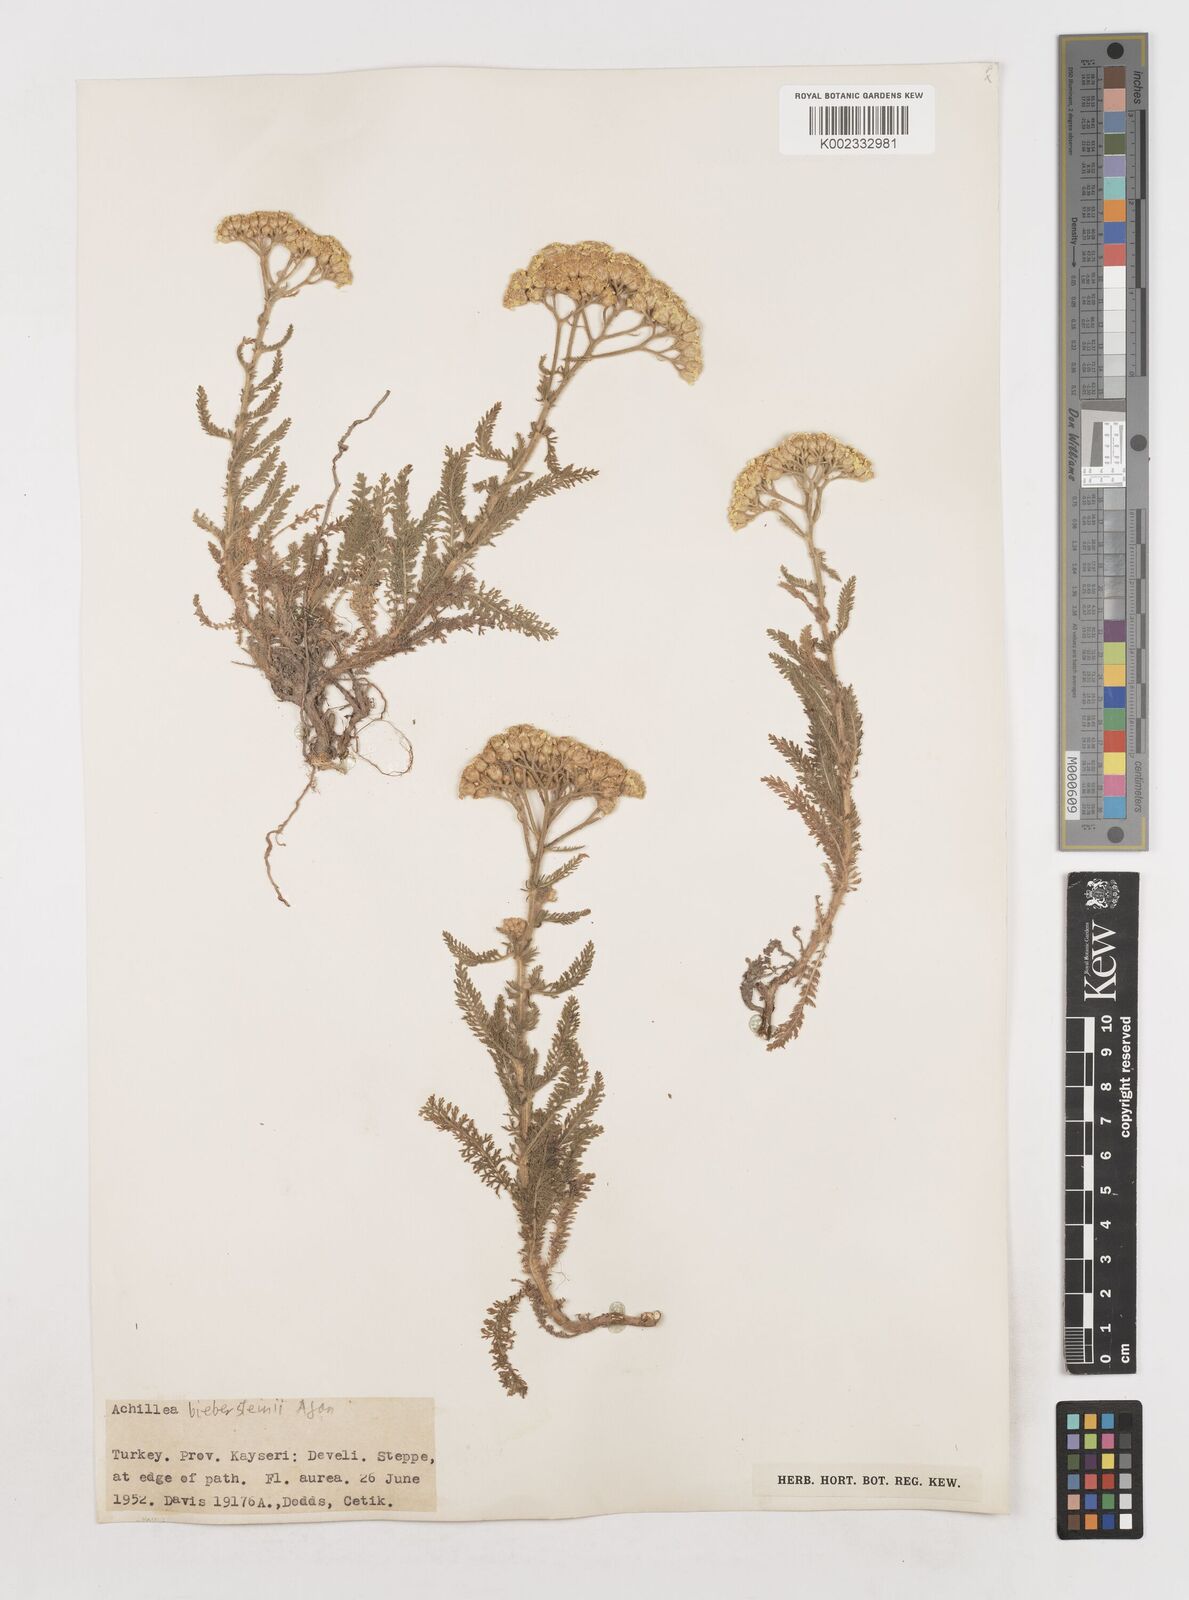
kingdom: Plantae
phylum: Tracheophyta
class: Magnoliopsida
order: Asterales
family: Asteraceae
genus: Achillea
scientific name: Achillea arabica
